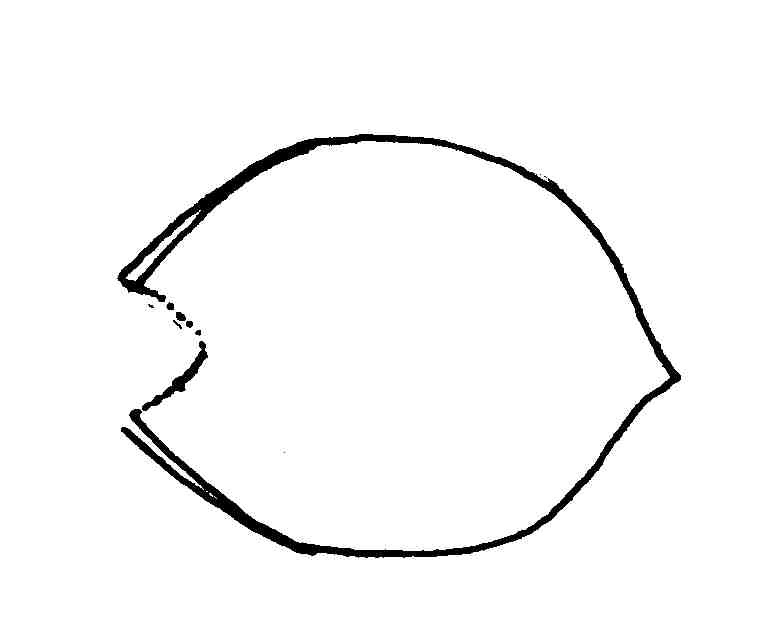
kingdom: Animalia
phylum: Chordata
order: Perciformes
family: Gobiidae
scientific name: Gobiidae
